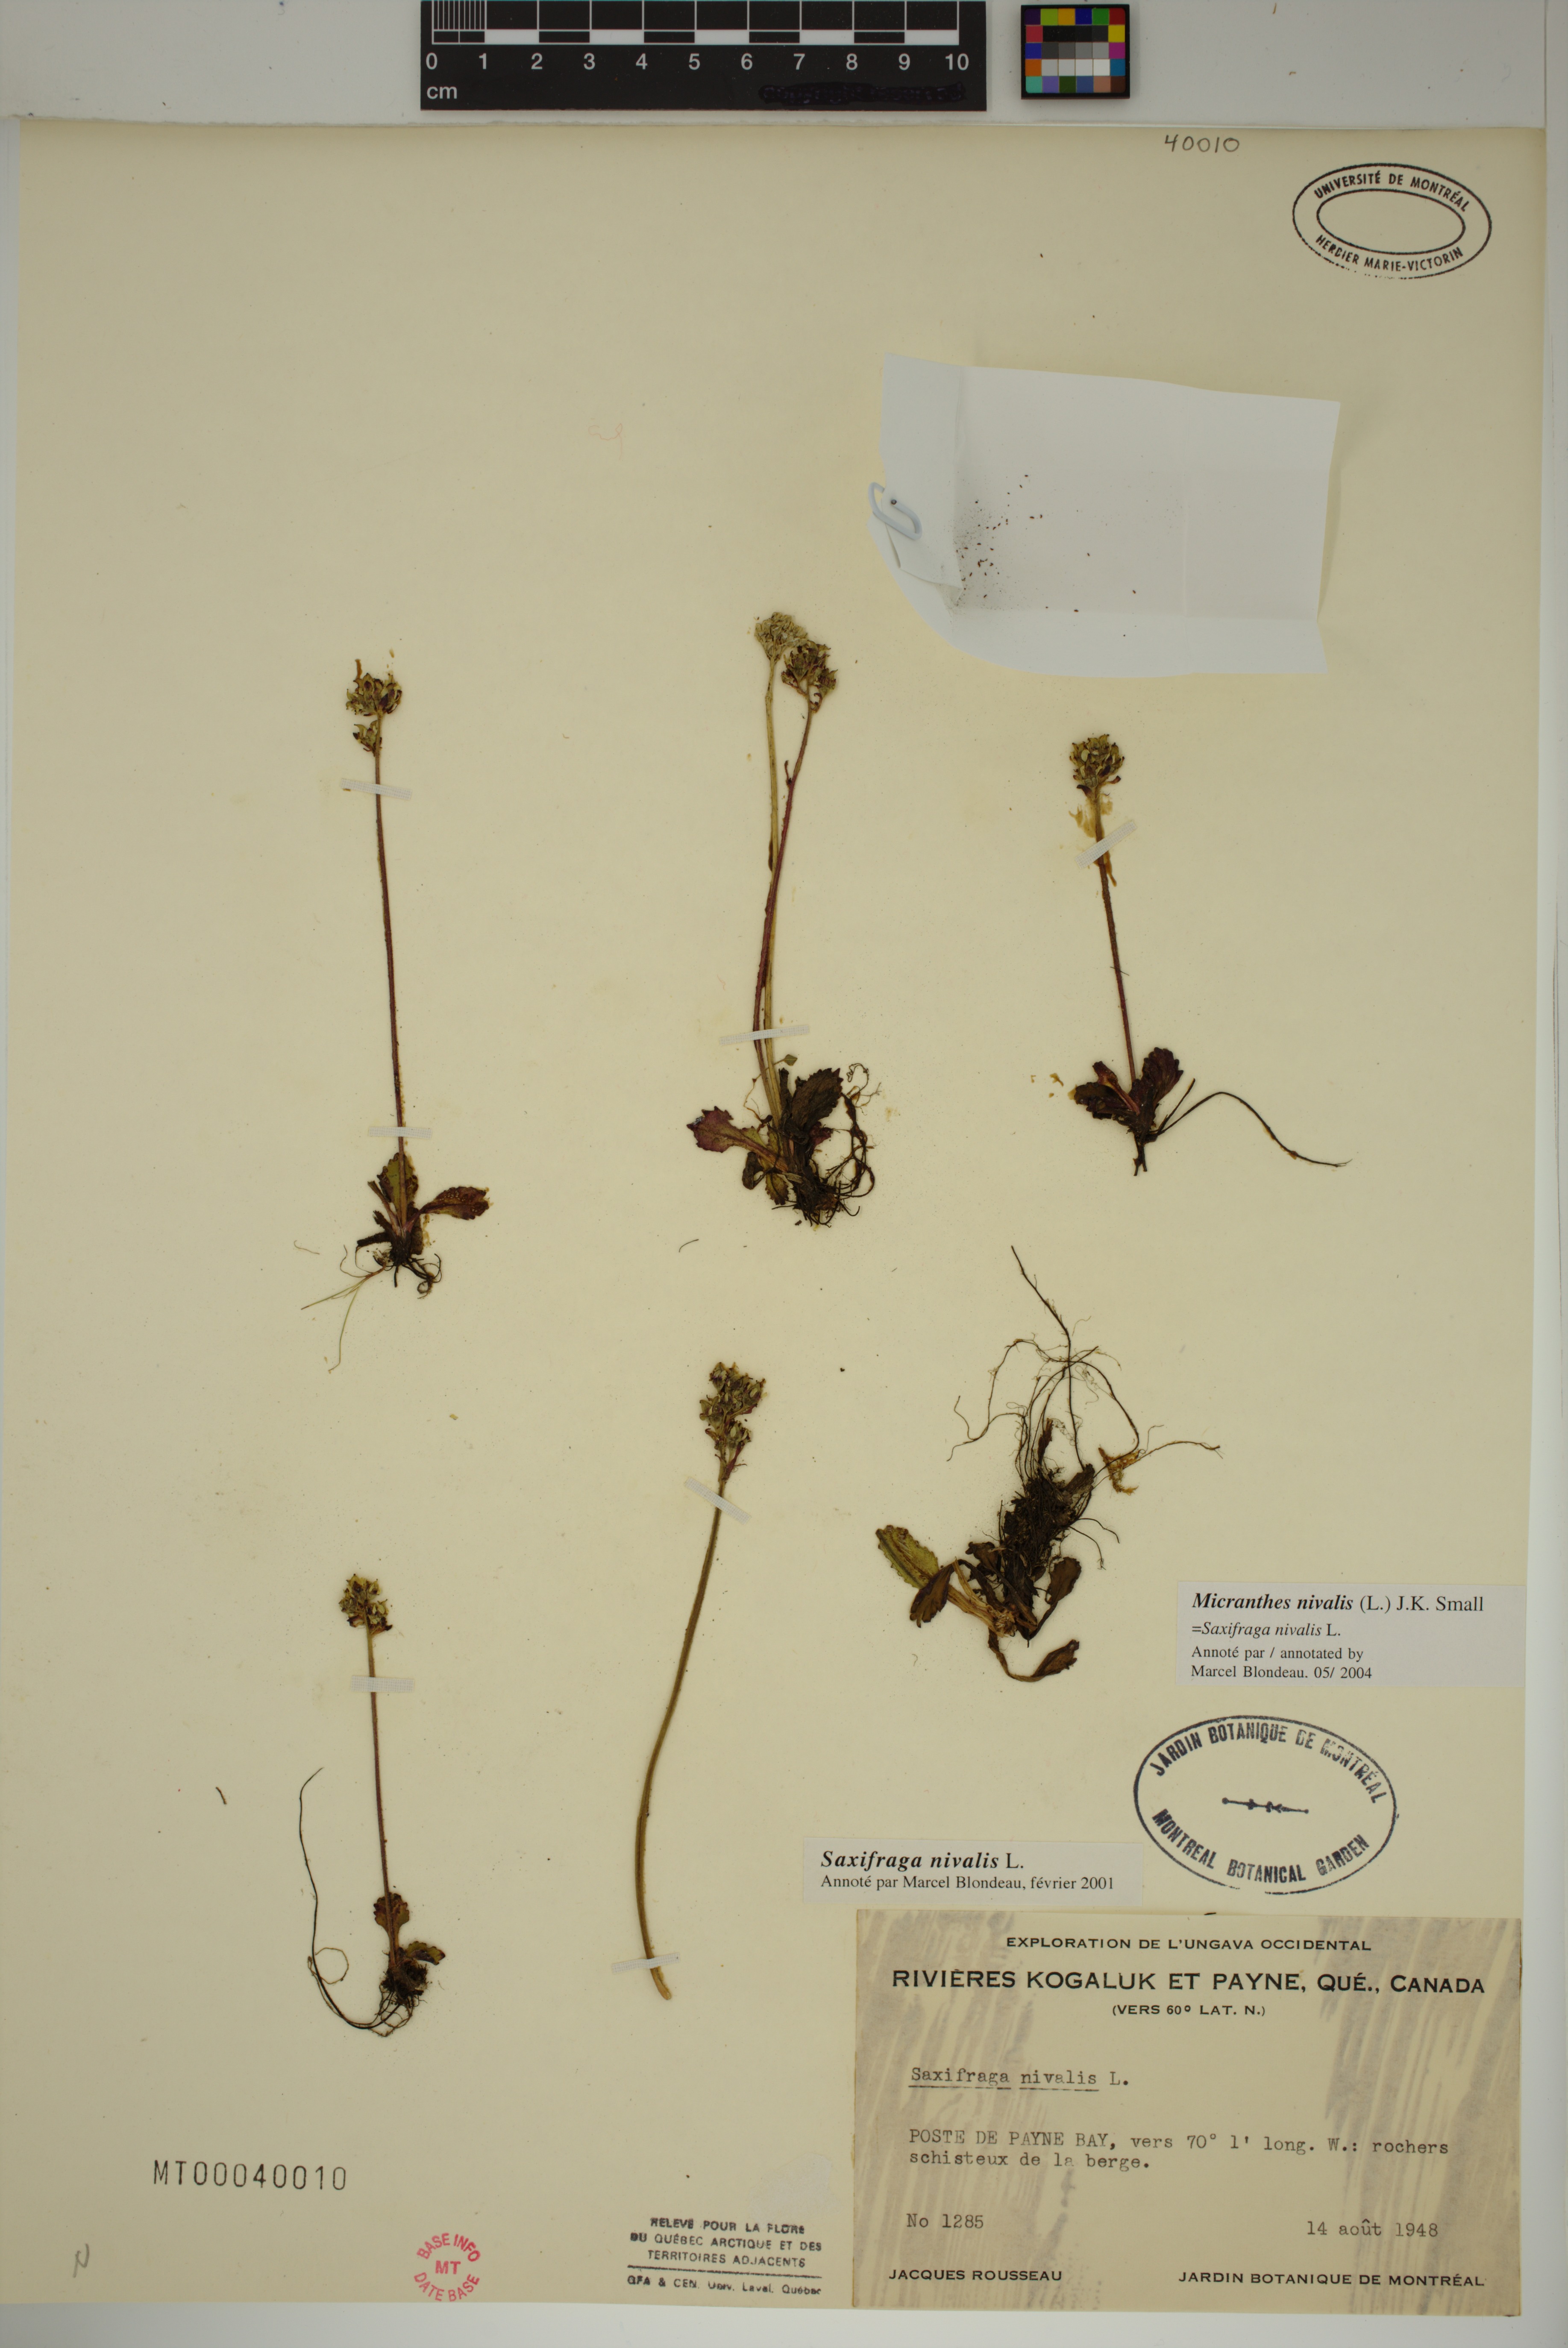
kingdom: Plantae
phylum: Tracheophyta
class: Magnoliopsida
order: Saxifragales
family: Saxifragaceae
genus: Micranthes
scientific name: Micranthes nivalis
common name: Alpine saxifrage
